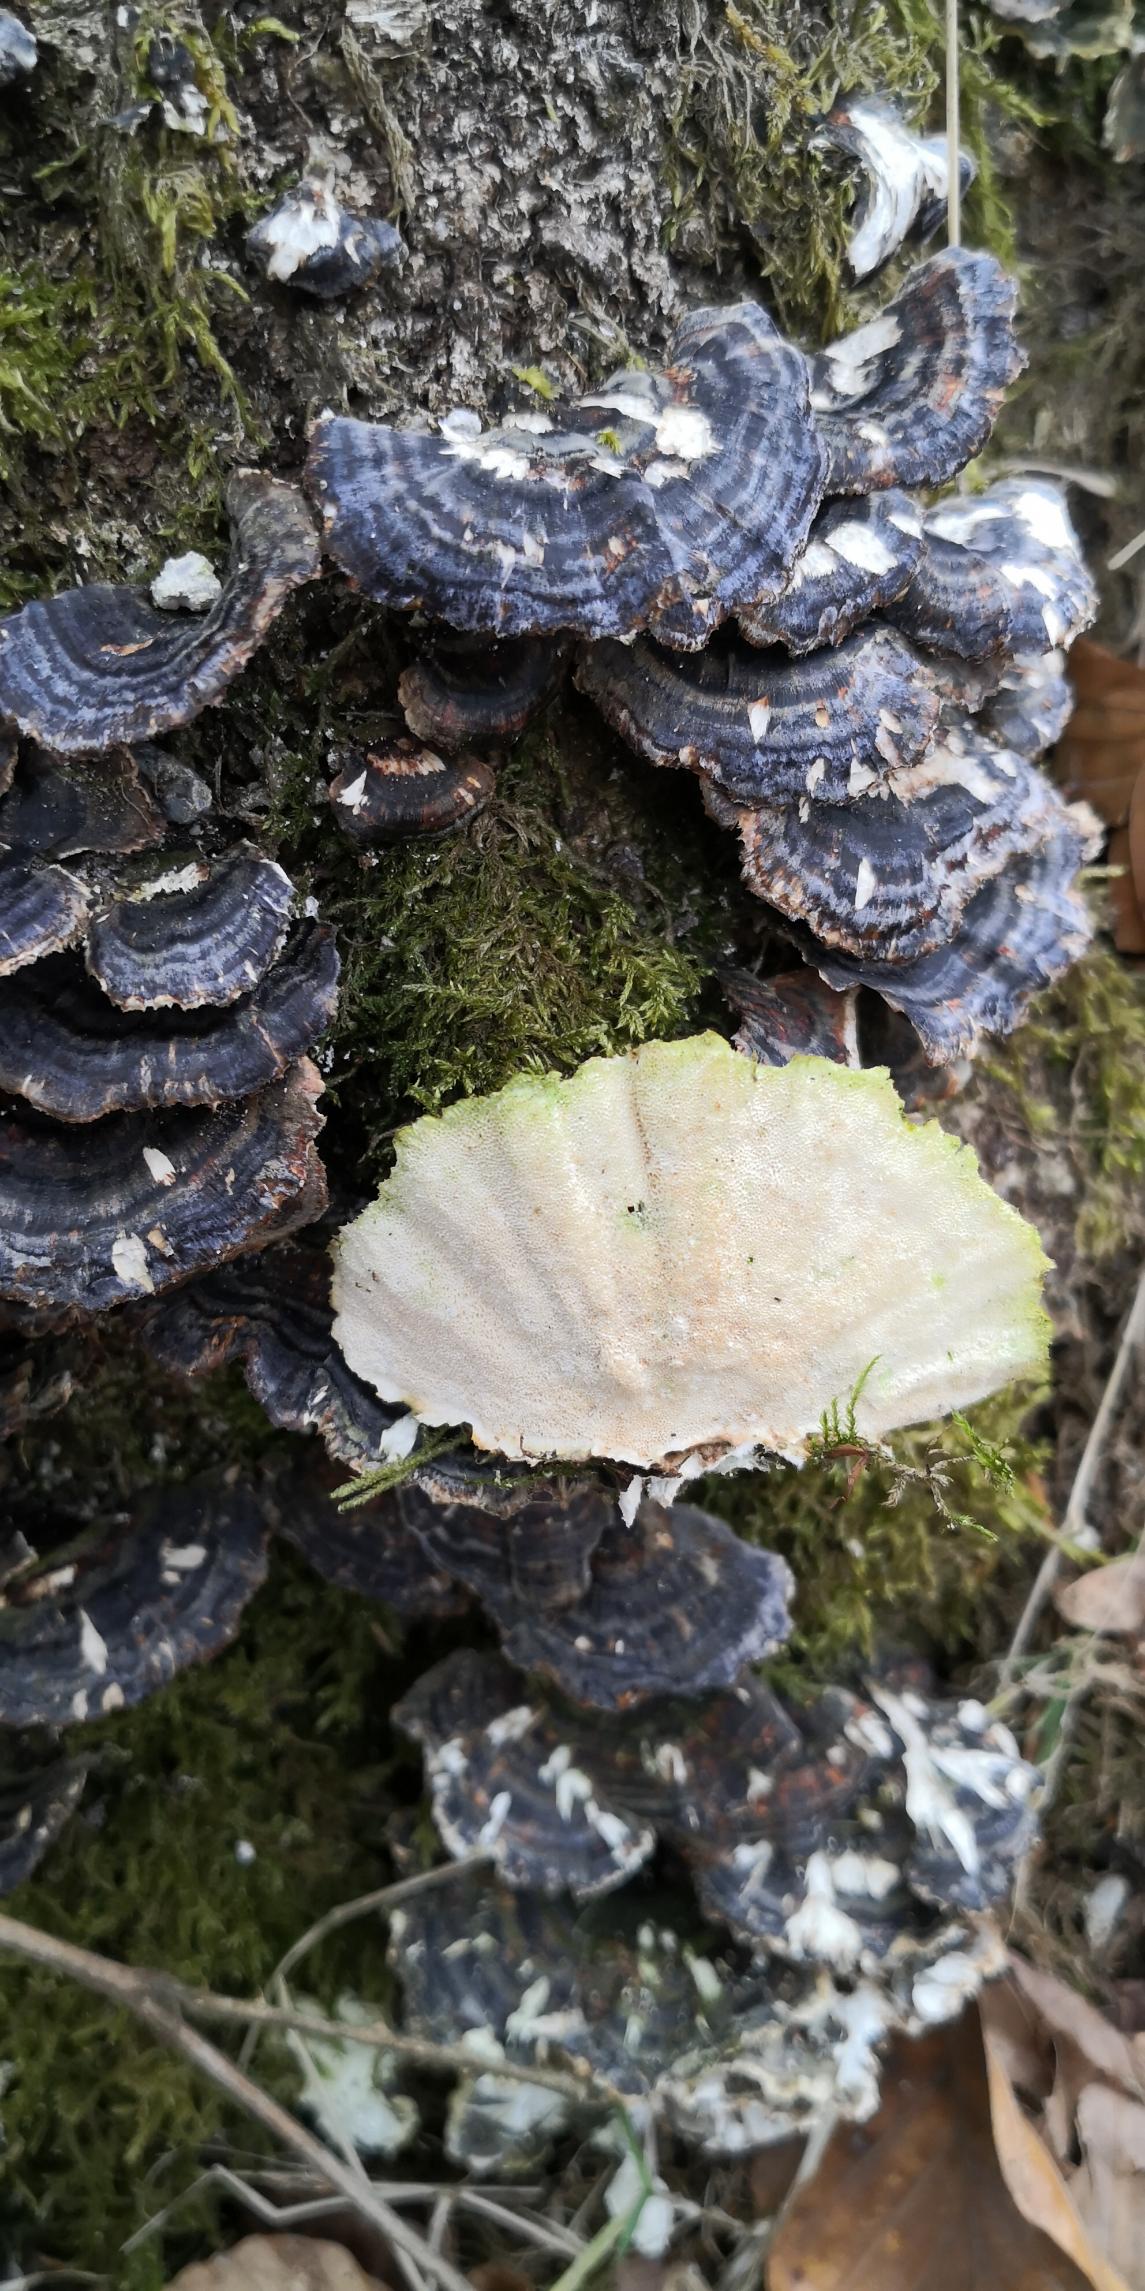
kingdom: Fungi
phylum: Basidiomycota
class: Agaricomycetes
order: Polyporales
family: Polyporaceae
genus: Trametes
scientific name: Trametes versicolor
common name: Broget læderporesvamp
